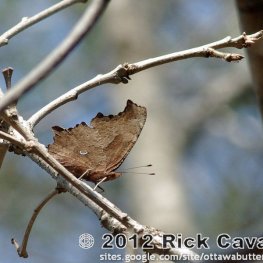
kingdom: Animalia
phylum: Arthropoda
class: Insecta
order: Lepidoptera
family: Nymphalidae
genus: Polygonia
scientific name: Polygonia comma
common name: Eastern Comma
